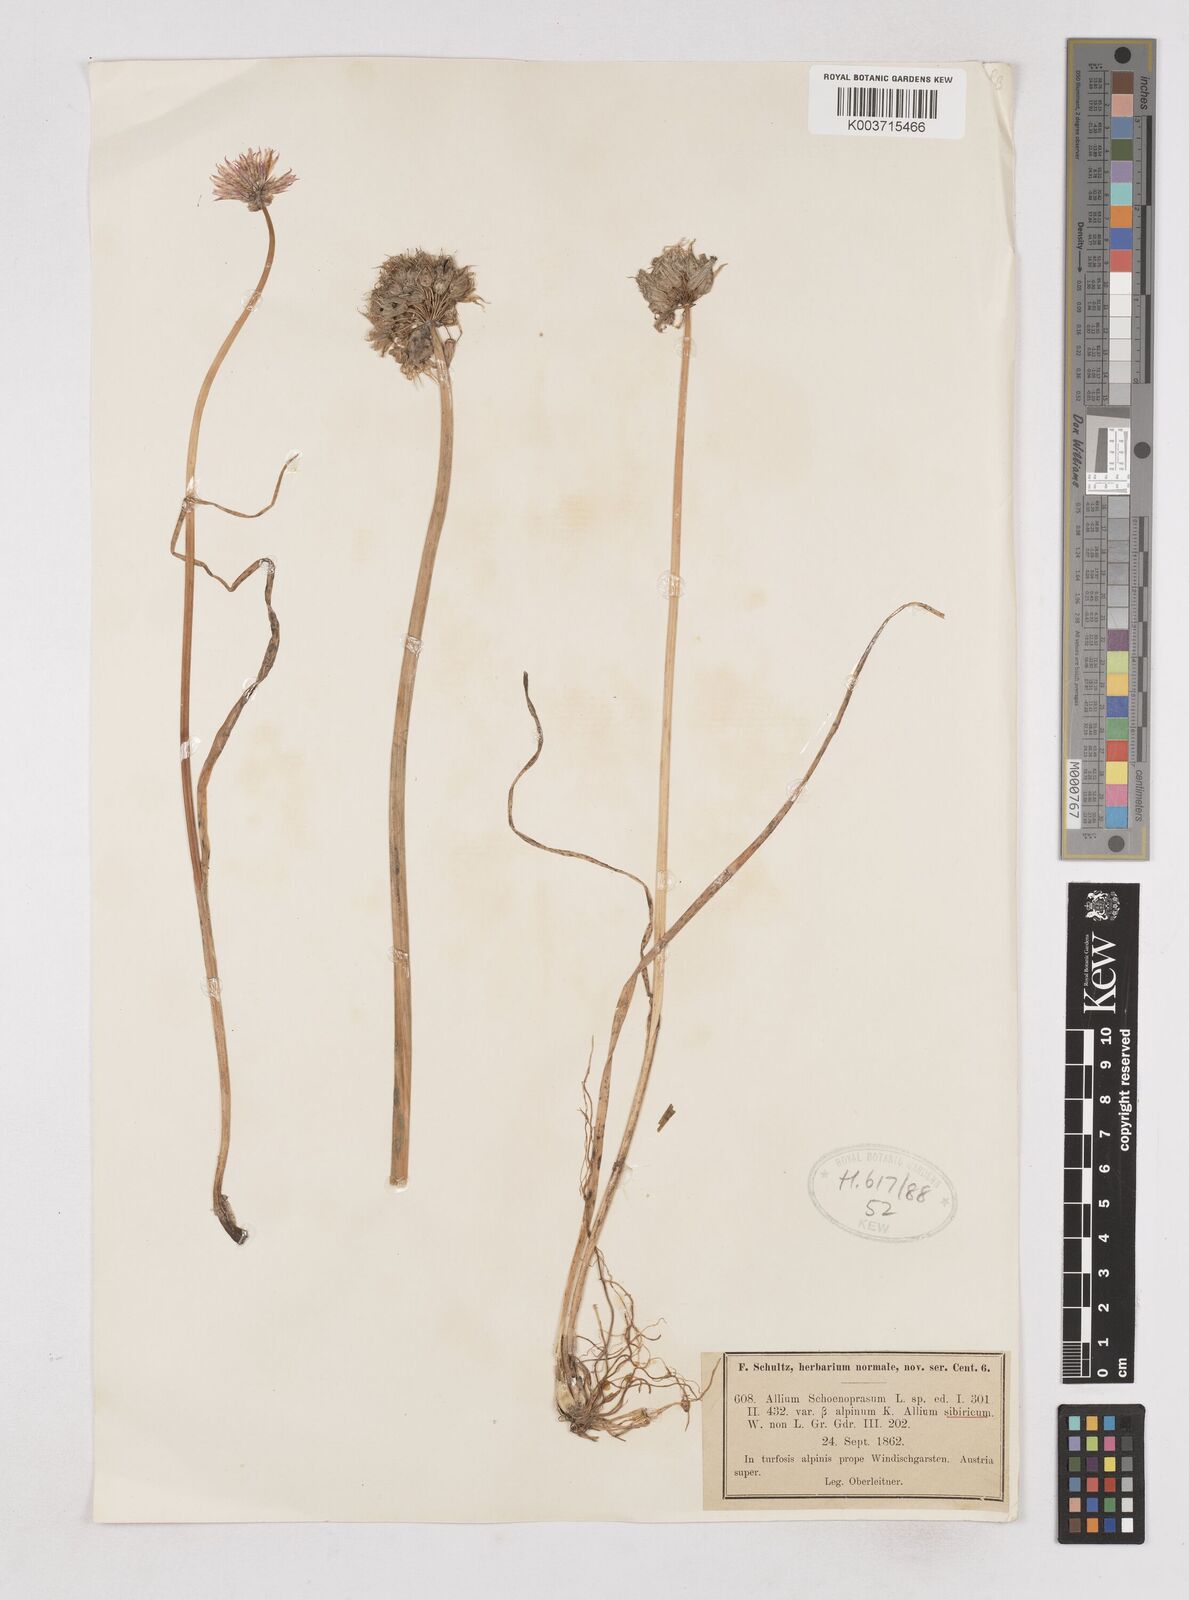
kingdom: Plantae
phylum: Tracheophyta
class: Liliopsida
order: Asparagales
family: Amaryllidaceae
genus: Allium
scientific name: Allium schoenoprasum
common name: Chives
